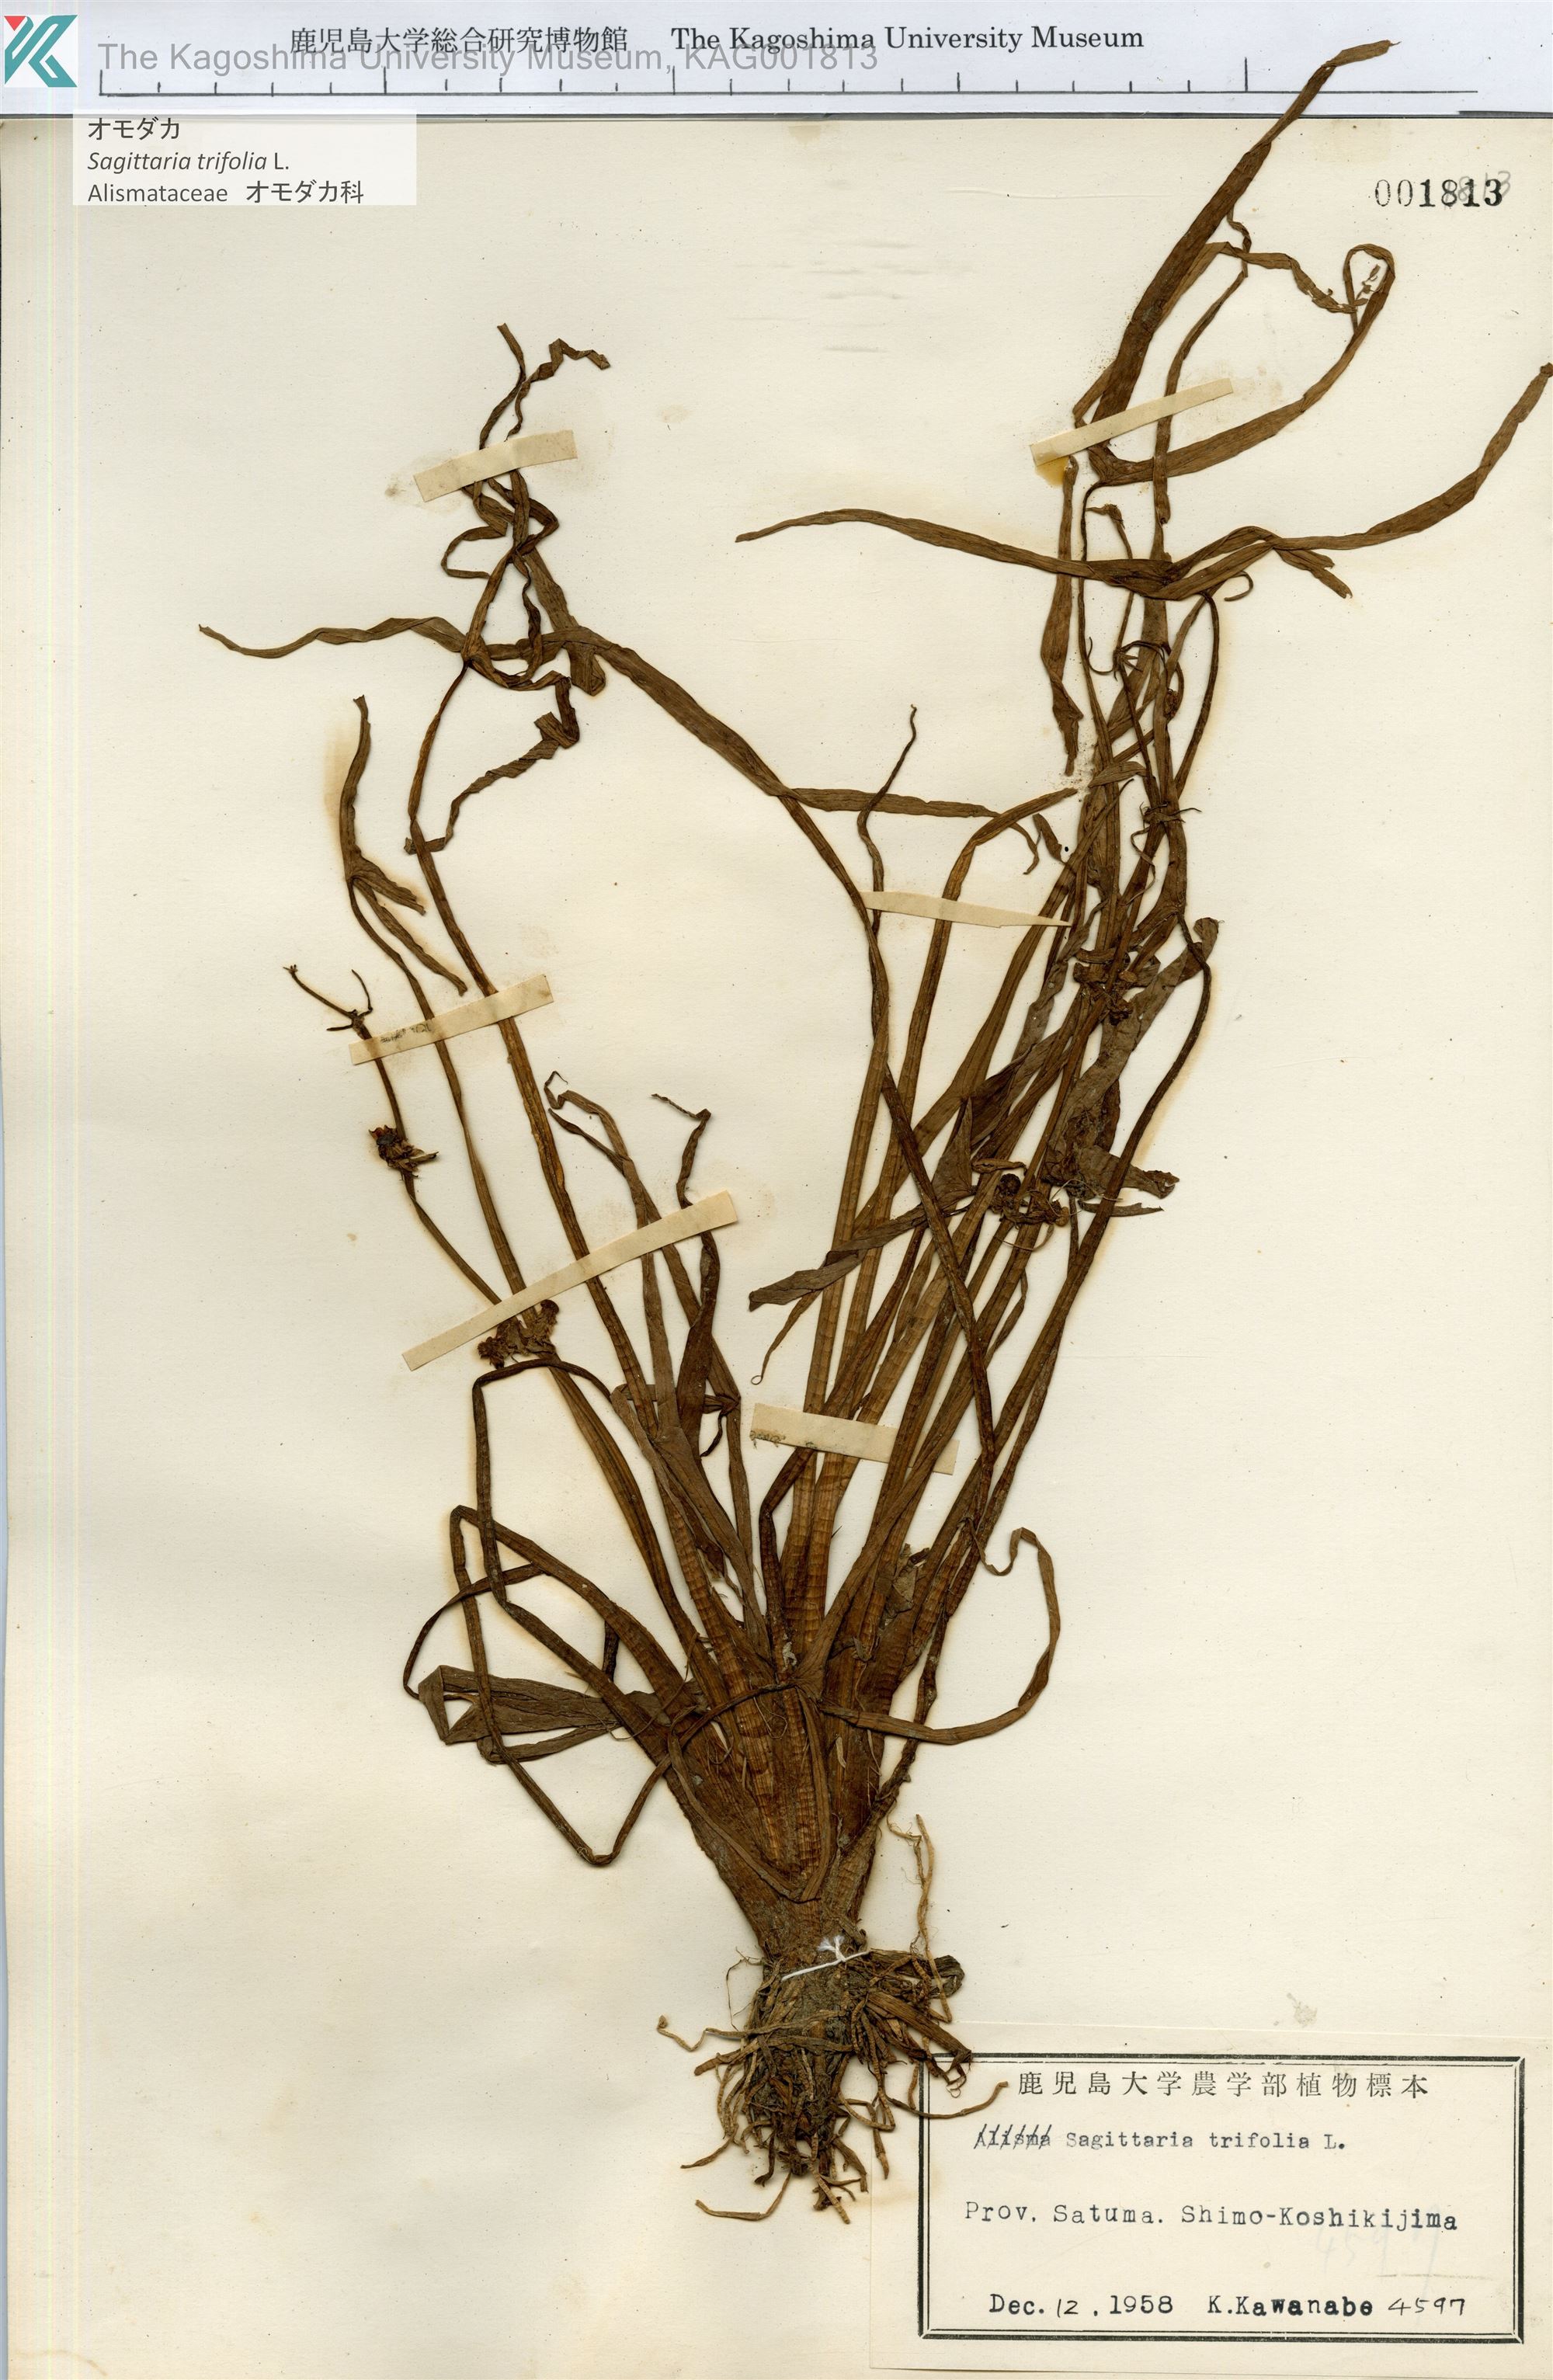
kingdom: Plantae
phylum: Tracheophyta
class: Liliopsida
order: Alismatales
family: Alismataceae
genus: Sagittaria
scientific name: Sagittaria trifolia
